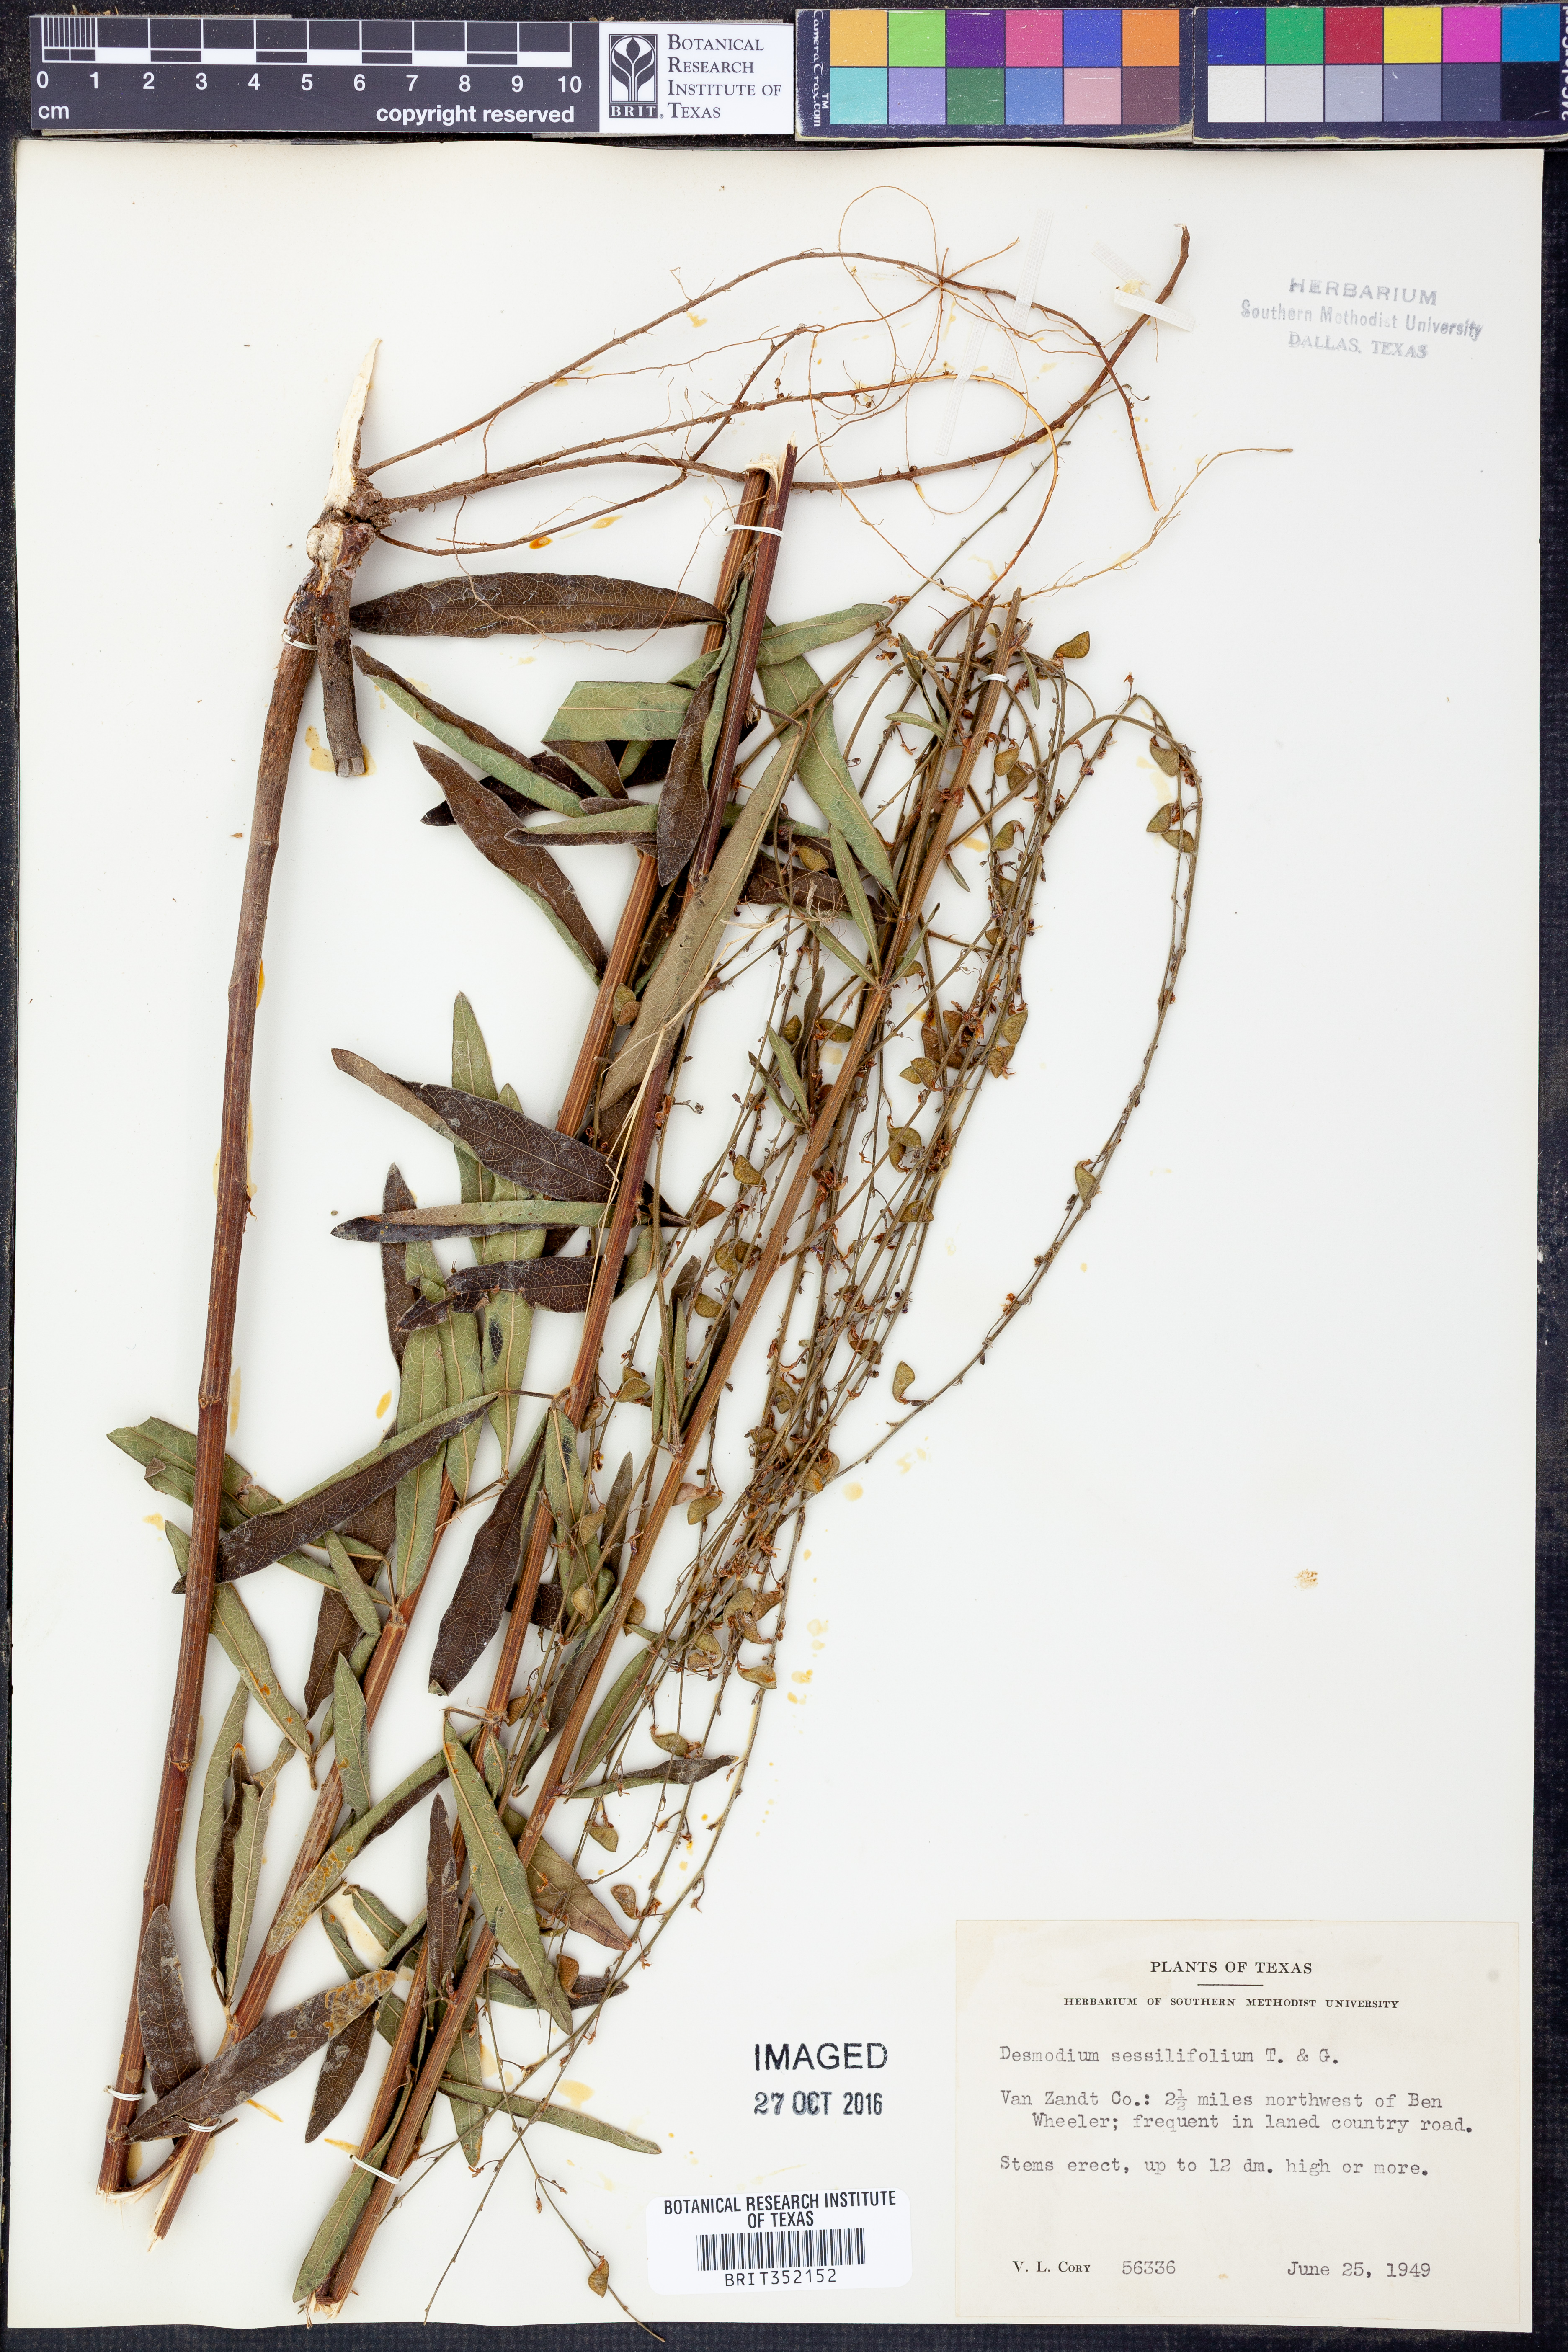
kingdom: Plantae
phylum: Tracheophyta
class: Magnoliopsida
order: Fabales
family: Fabaceae
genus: Desmodium
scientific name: Desmodium sessilifolium
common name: Sessile tick-clover
